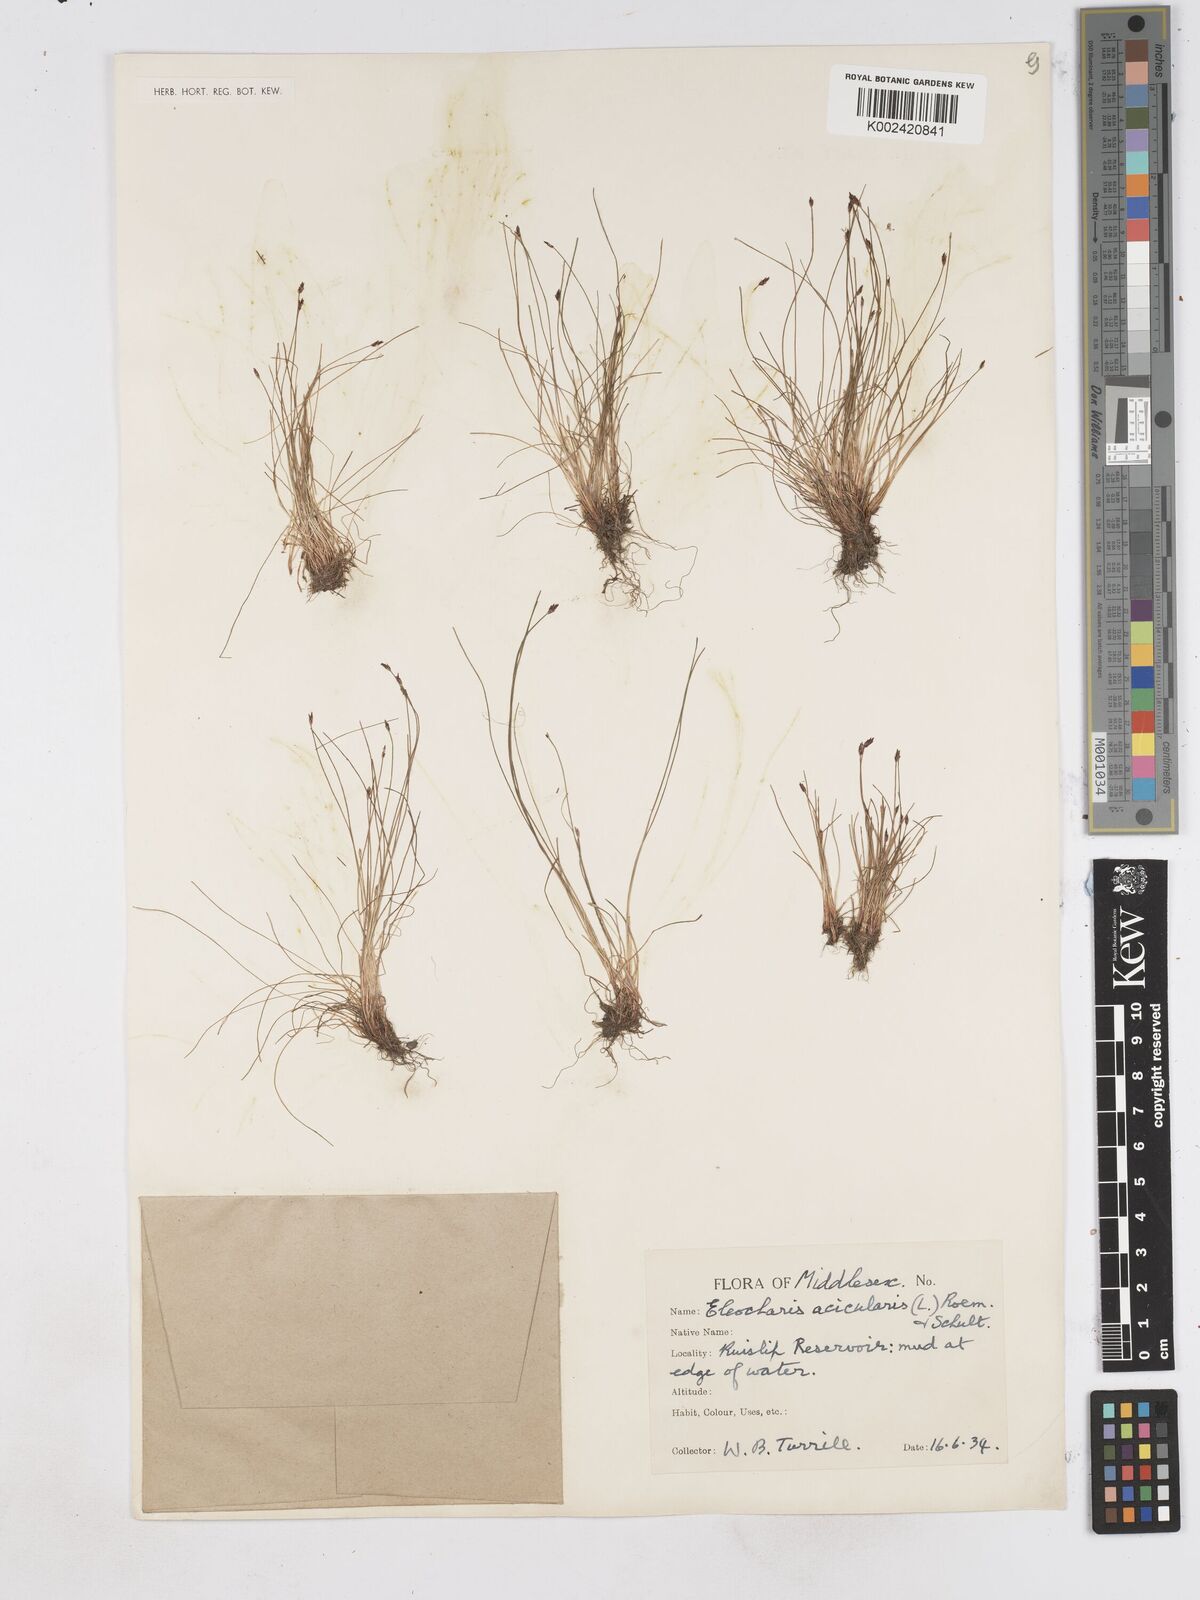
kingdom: Plantae
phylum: Tracheophyta
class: Liliopsida
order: Poales
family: Cyperaceae
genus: Eleocharis
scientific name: Eleocharis acicularis
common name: Needle spike-rush
